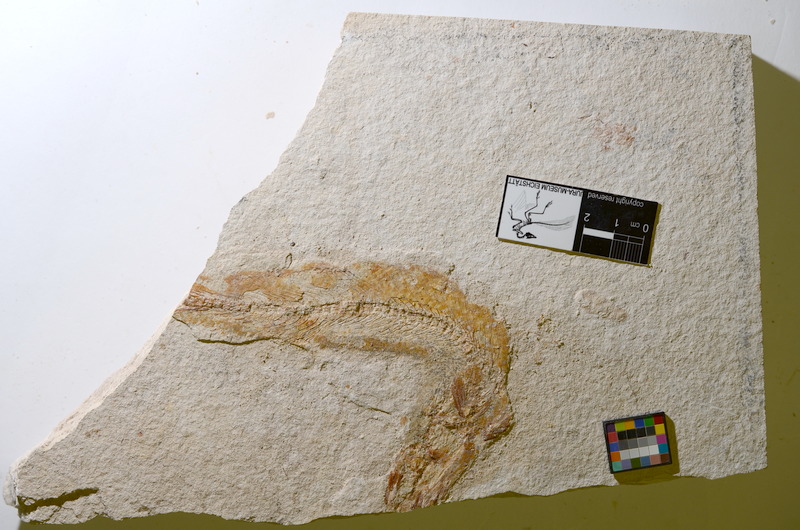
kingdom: Animalia
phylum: Chordata
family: Allothrissopidae
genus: Allothrissops
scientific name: Allothrissops
